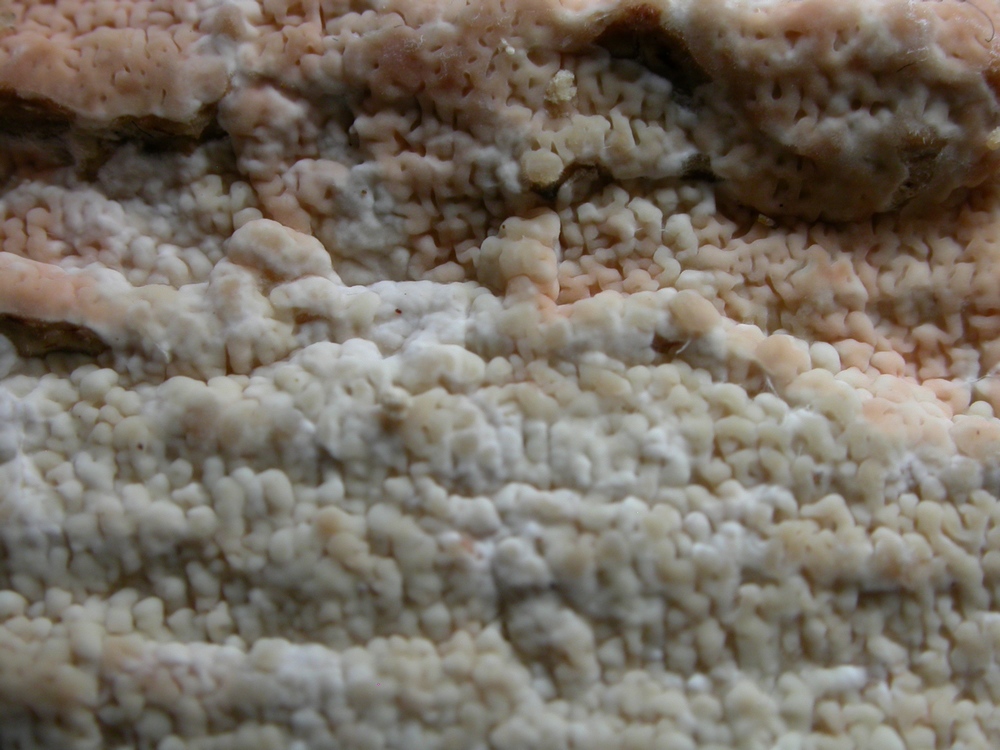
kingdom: Fungi
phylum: Basidiomycota
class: Agaricomycetes
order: Polyporales
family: Irpicaceae
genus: Crystallicutis
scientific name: Crystallicutis serpens
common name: gråviolet barkhinde
